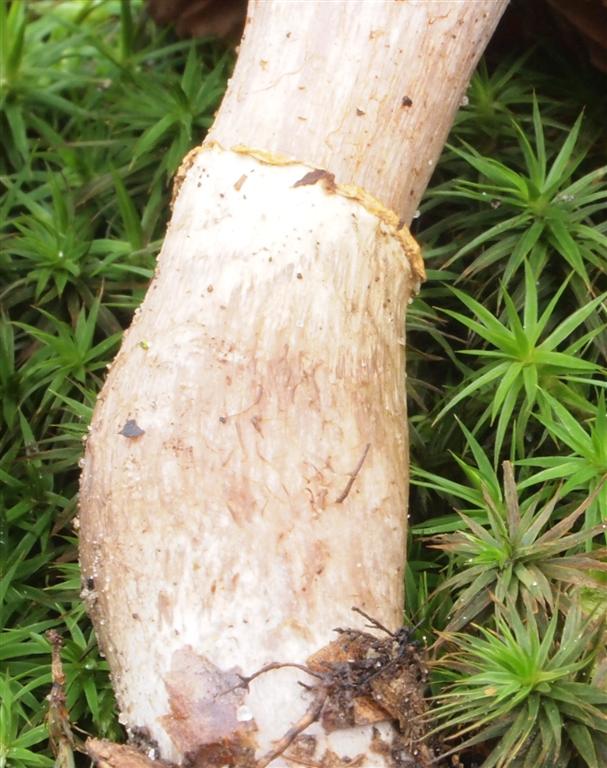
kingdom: Fungi
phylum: Basidiomycota
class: Agaricomycetes
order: Agaricales
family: Cortinariaceae
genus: Cortinarius
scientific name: Cortinarius torvus
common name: champignonagtig slørhat
